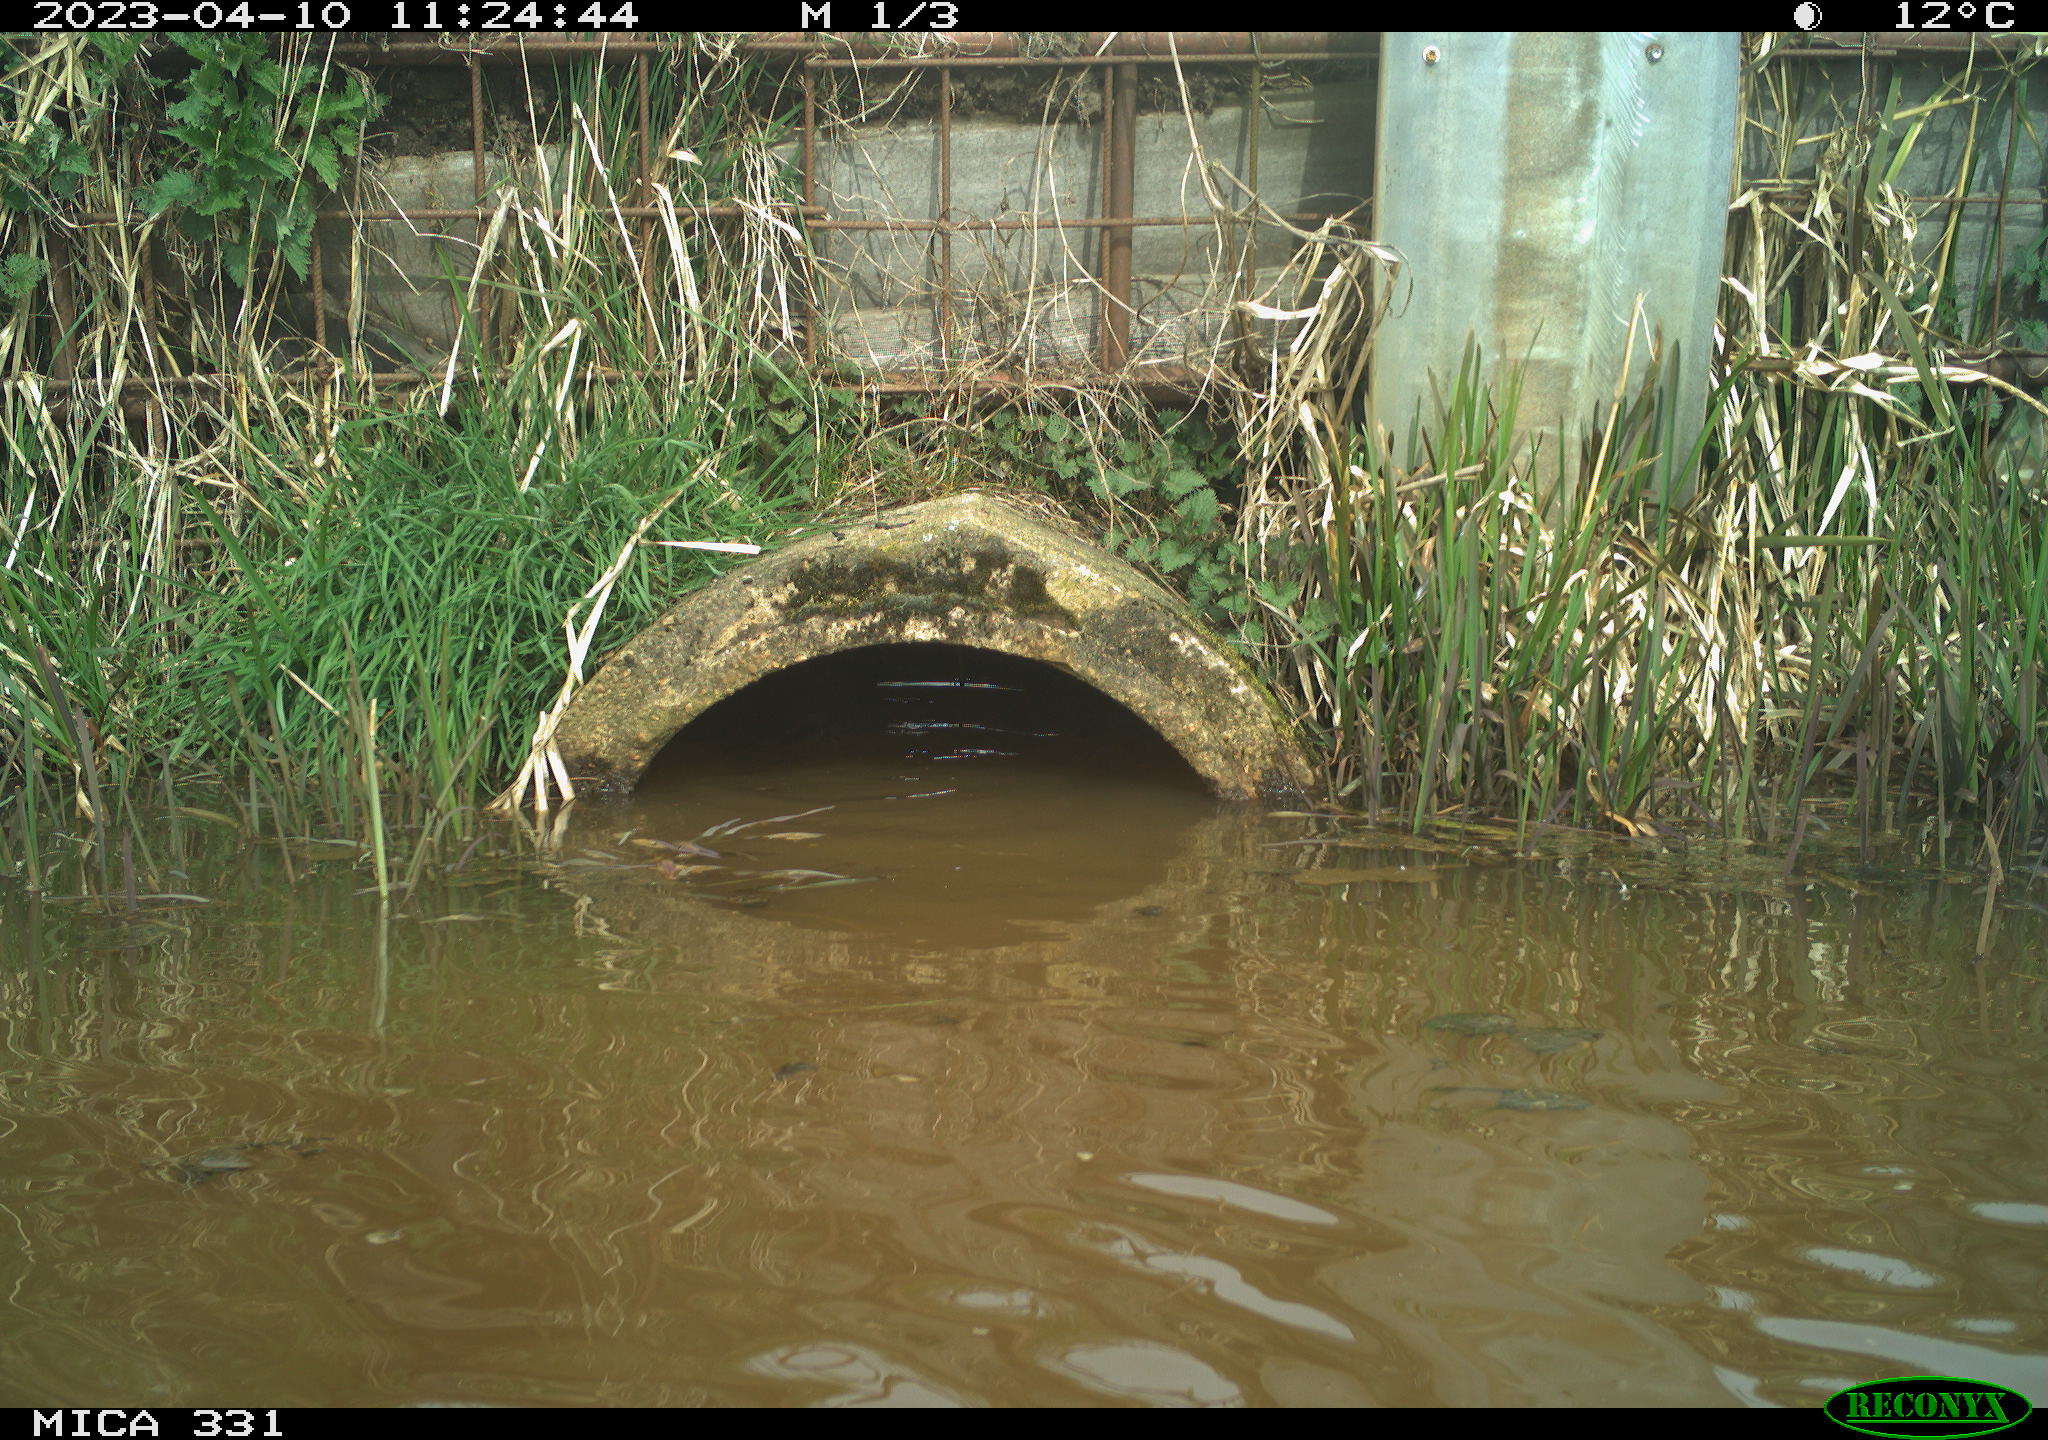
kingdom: Animalia
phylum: Chordata
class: Aves
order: Gruiformes
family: Rallidae
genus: Gallinula
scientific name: Gallinula chloropus
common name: Common moorhen
